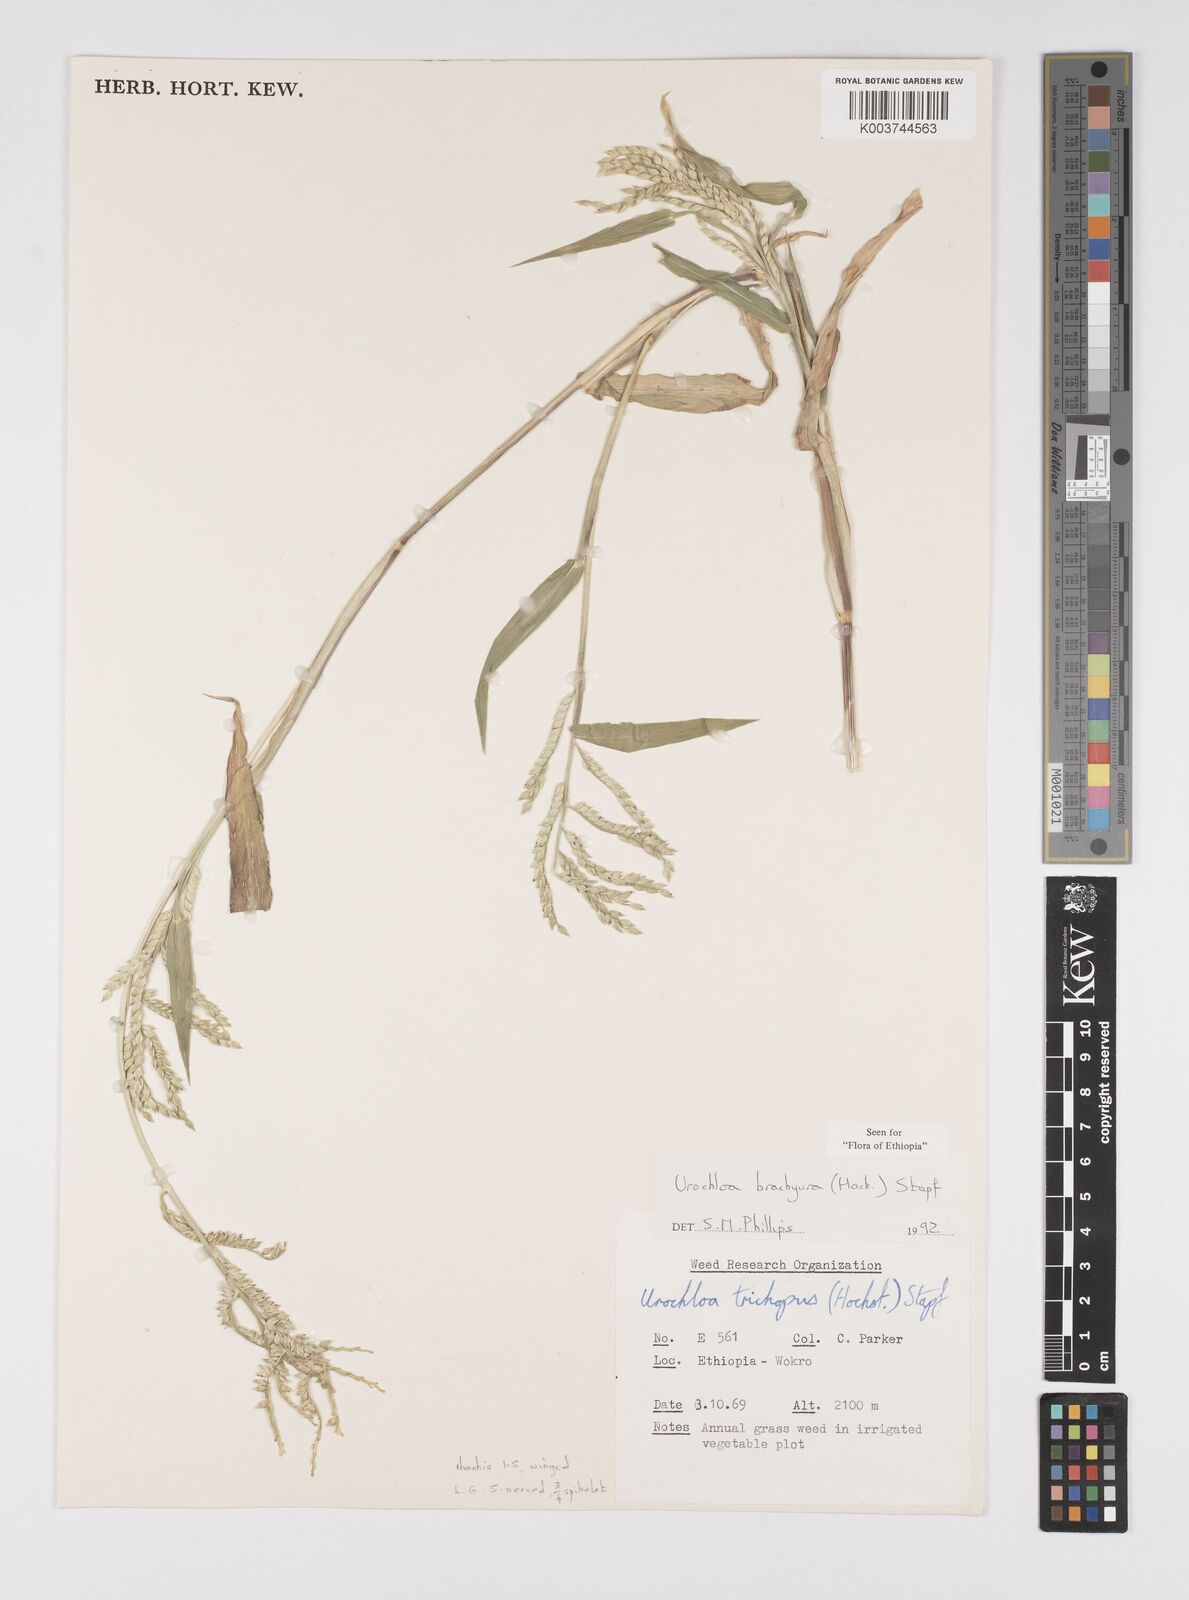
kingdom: Plantae
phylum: Tracheophyta
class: Liliopsida
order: Poales
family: Poaceae
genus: Urochloa
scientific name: Urochloa brachyura
